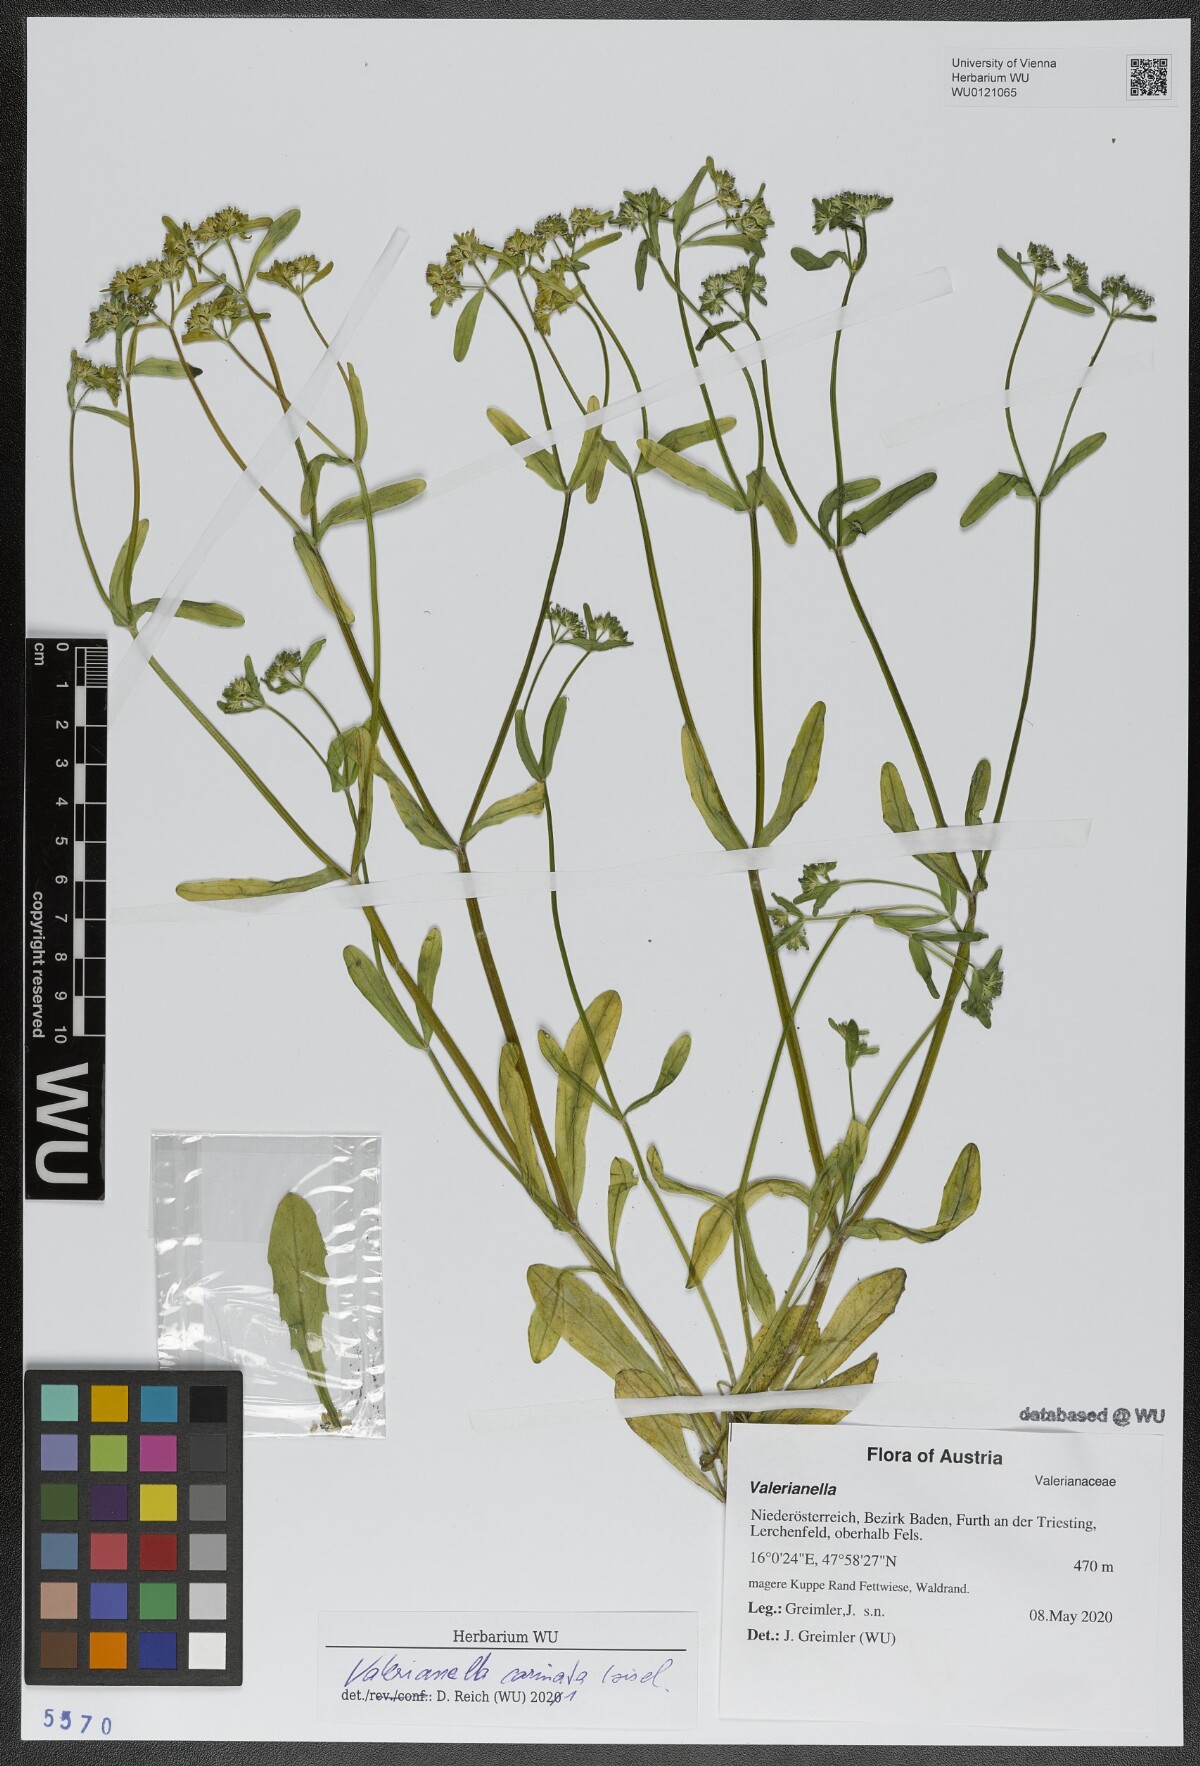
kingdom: Plantae
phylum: Tracheophyta
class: Magnoliopsida
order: Dipsacales
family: Caprifoliaceae
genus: Valerianella
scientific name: Valerianella carinata
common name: Keeled-fruited cornsalad
